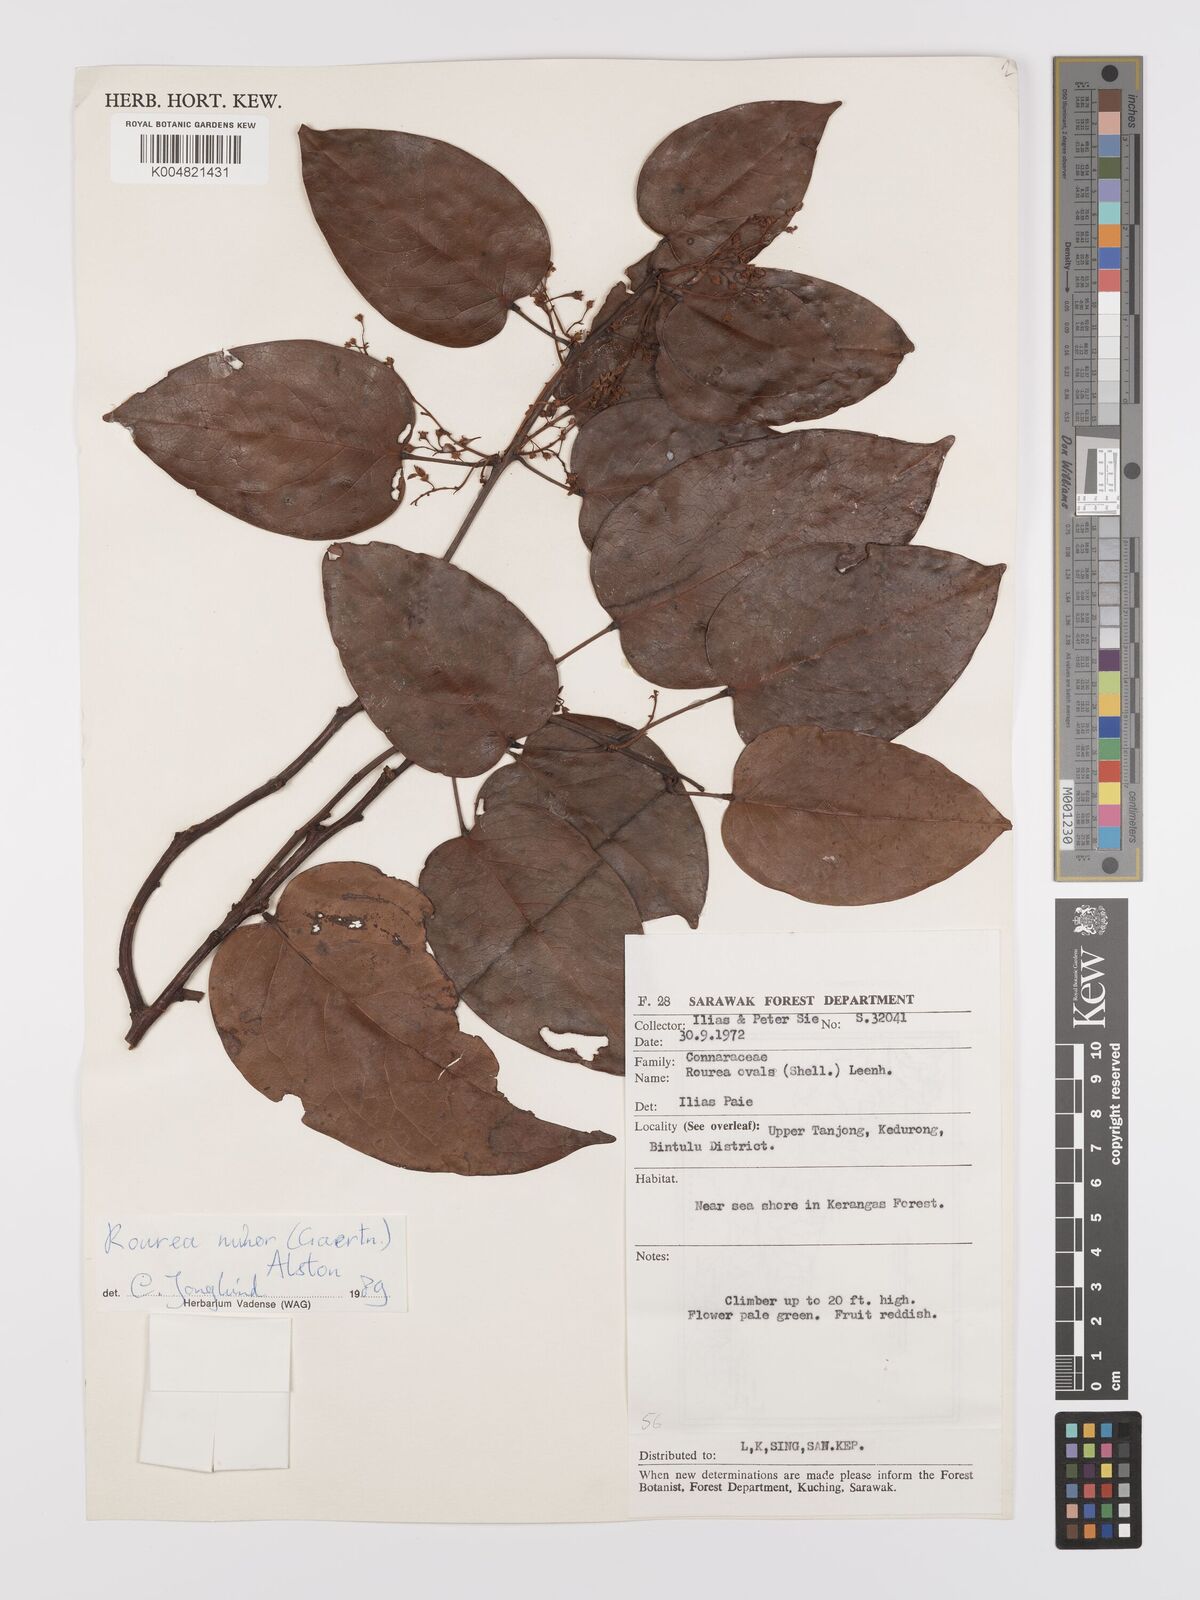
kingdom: Plantae
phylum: Tracheophyta
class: Magnoliopsida
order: Oxalidales
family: Connaraceae
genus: Rourea
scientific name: Rourea ovalis
